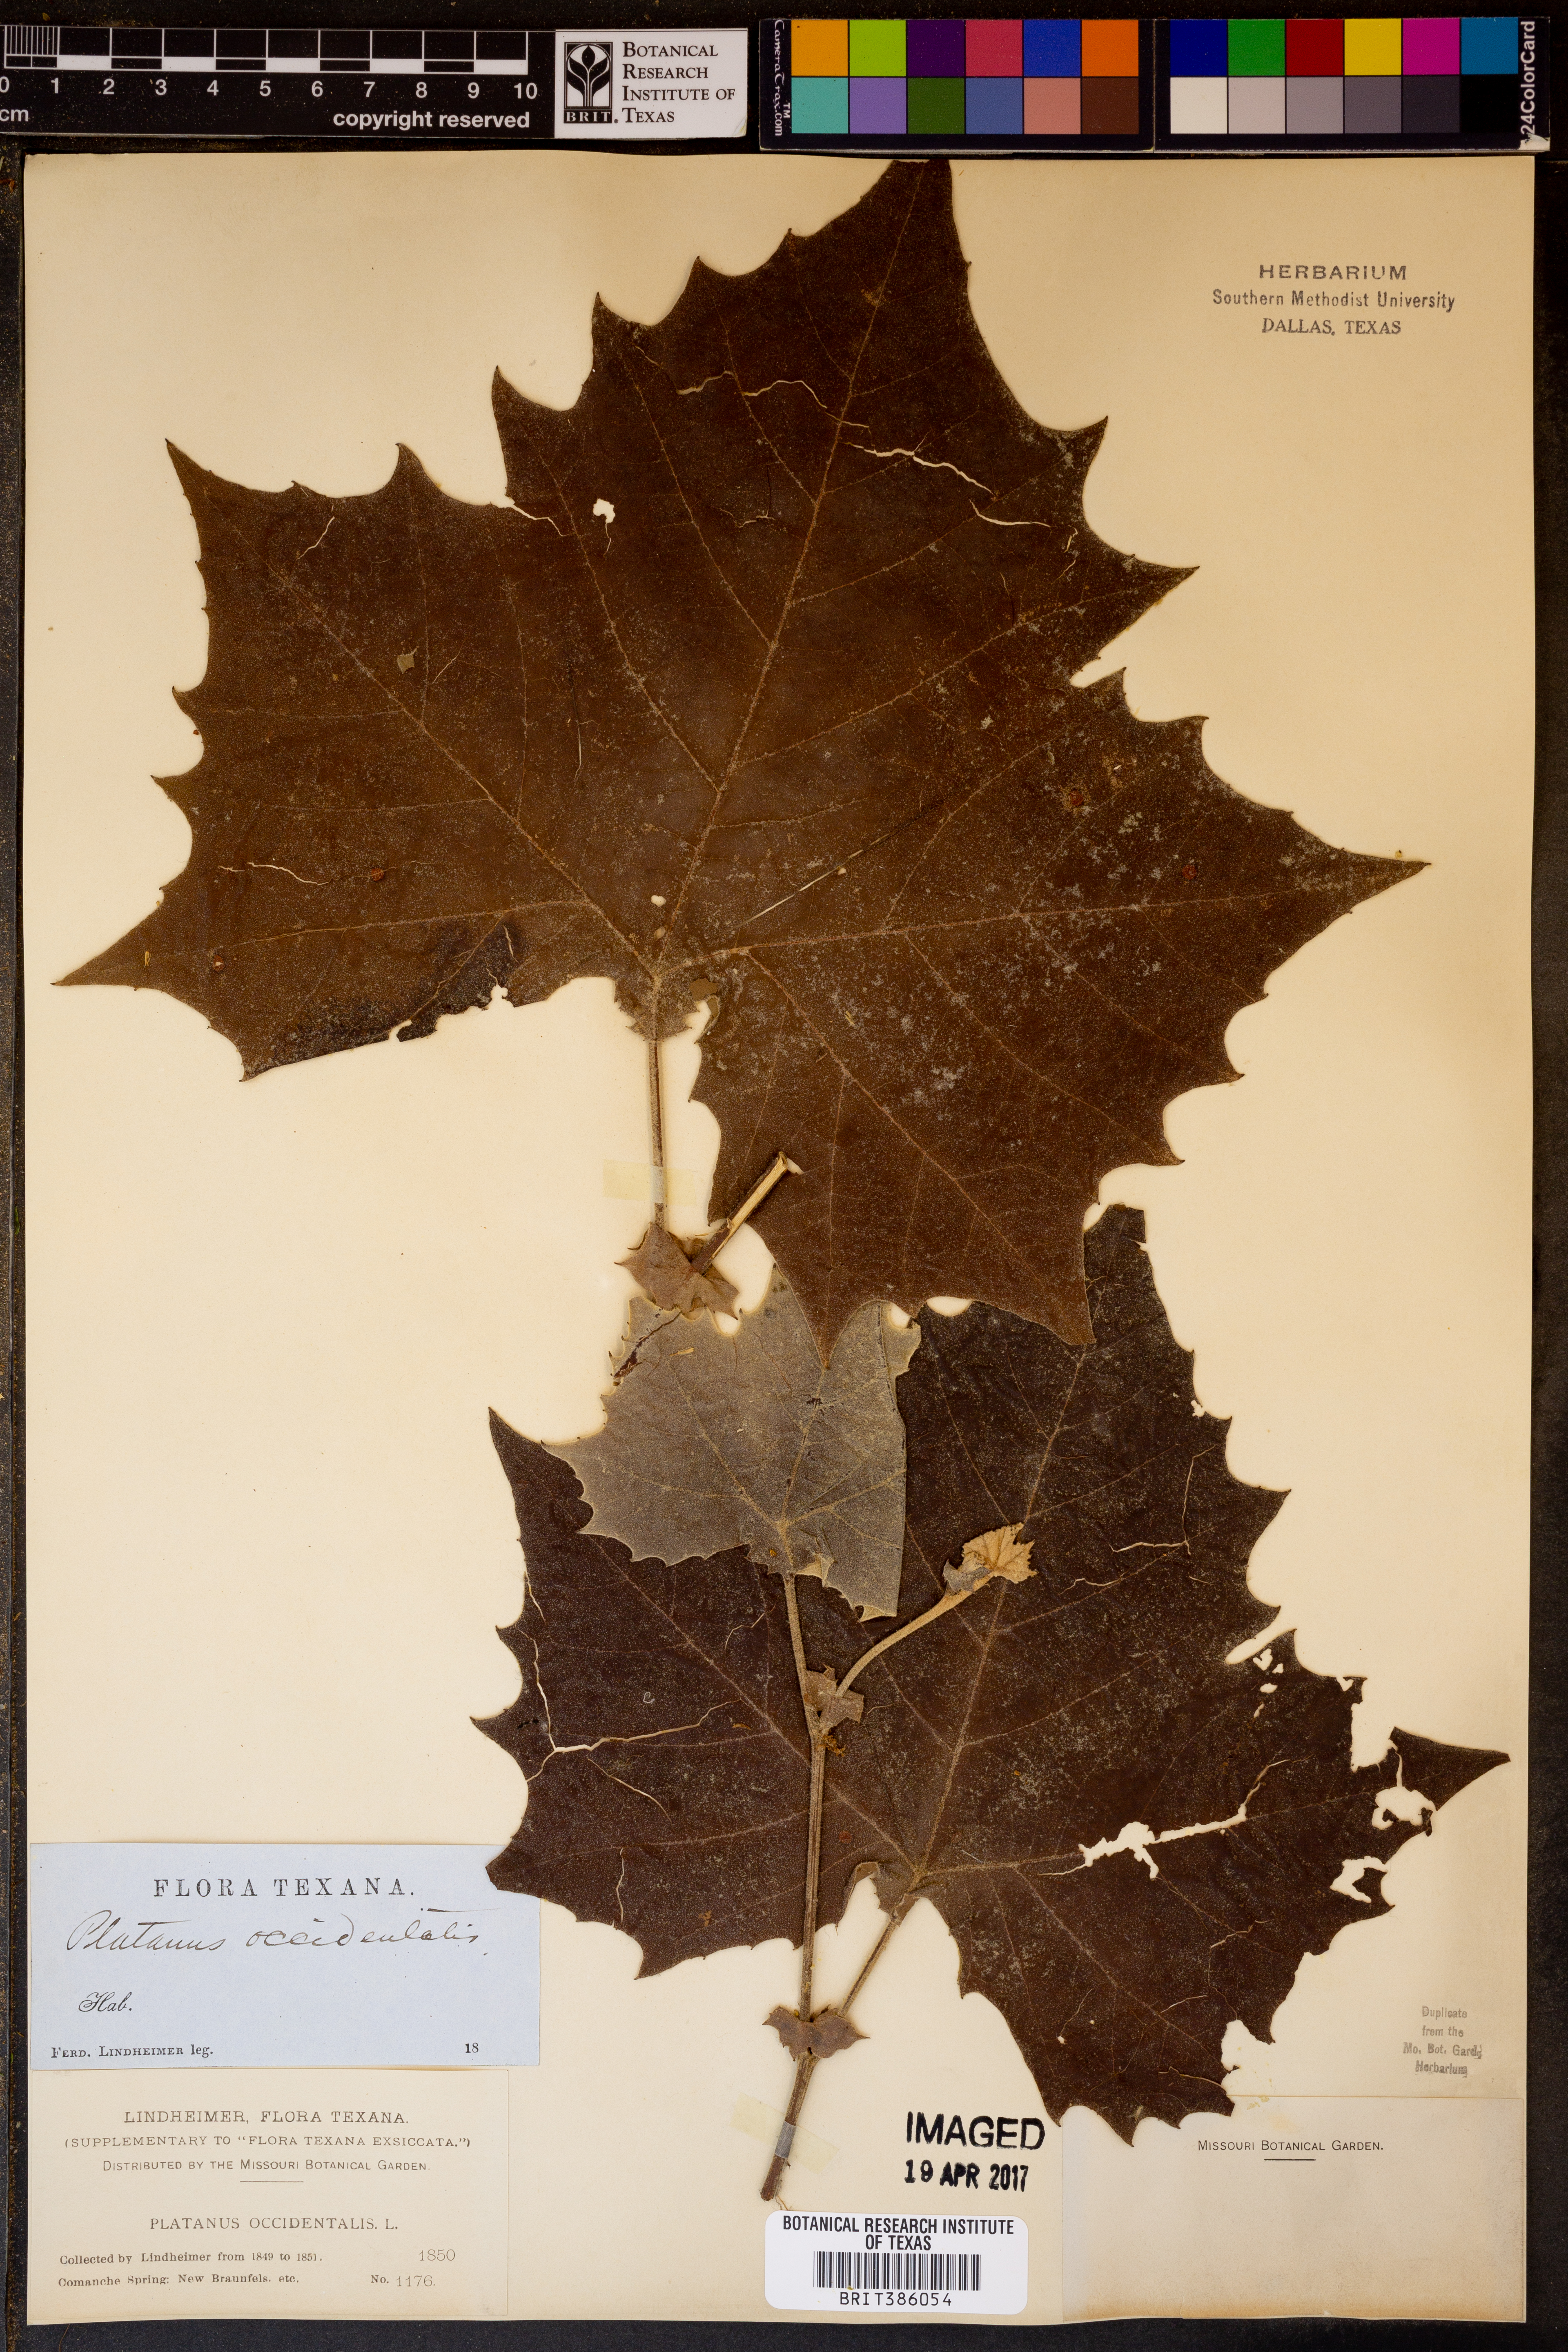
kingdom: Plantae
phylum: Tracheophyta
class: Magnoliopsida
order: Proteales
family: Platanaceae
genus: Platanus
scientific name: Platanus occidentalis
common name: American sycamore
